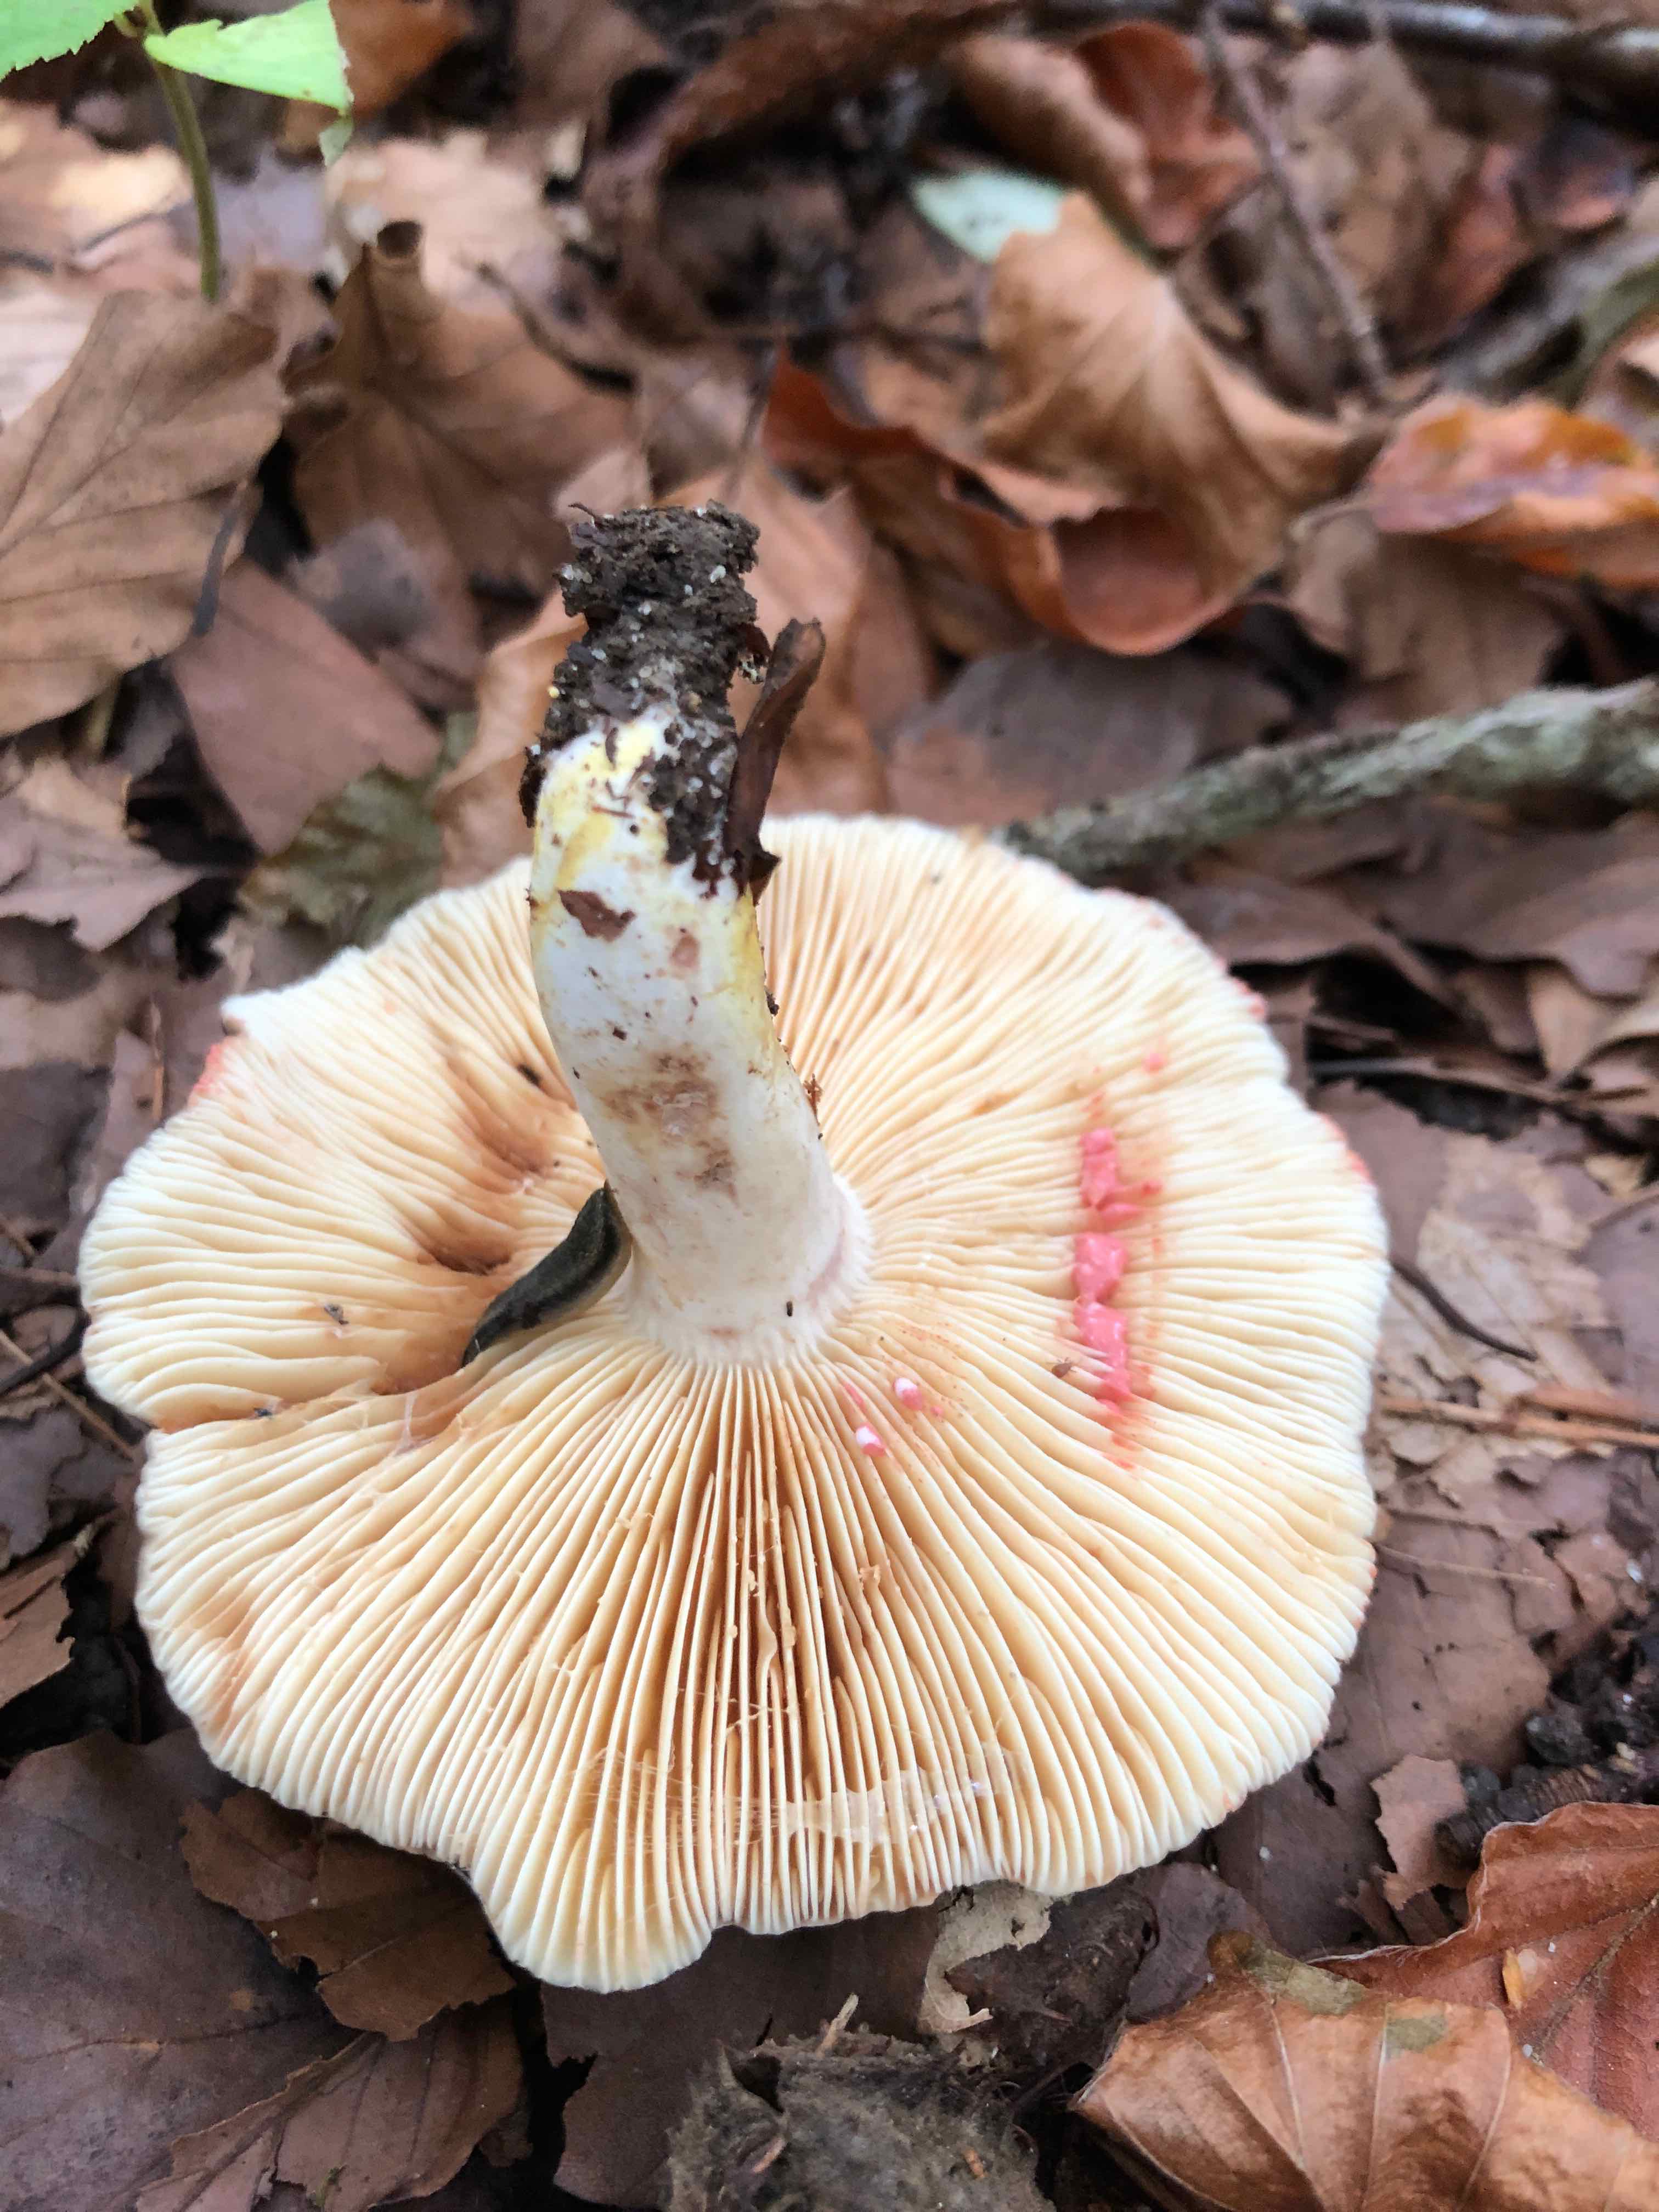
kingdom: Fungi
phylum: Basidiomycota
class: Agaricomycetes
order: Russulales
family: Russulaceae
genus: Lactarius
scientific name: Lactarius acris
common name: rosamælket mælkehat
